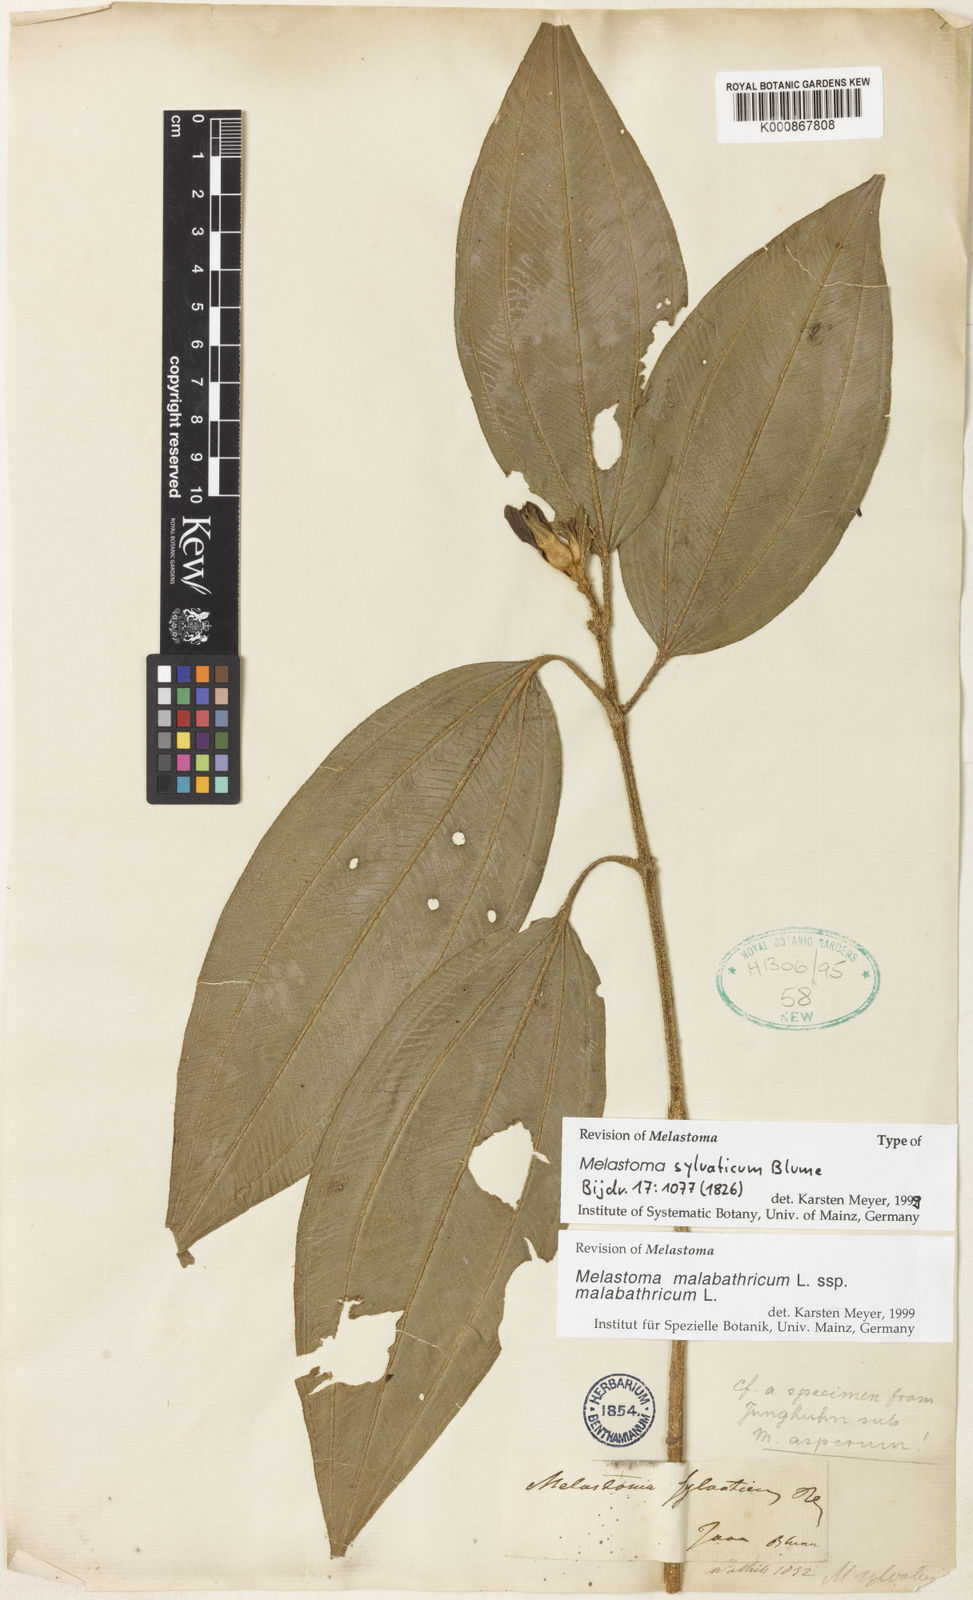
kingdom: Plantae
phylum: Tracheophyta
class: Magnoliopsida
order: Myrtales
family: Melastomataceae
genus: Melastoma
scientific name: Melastoma malabathricum
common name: Indian-rhododendron
